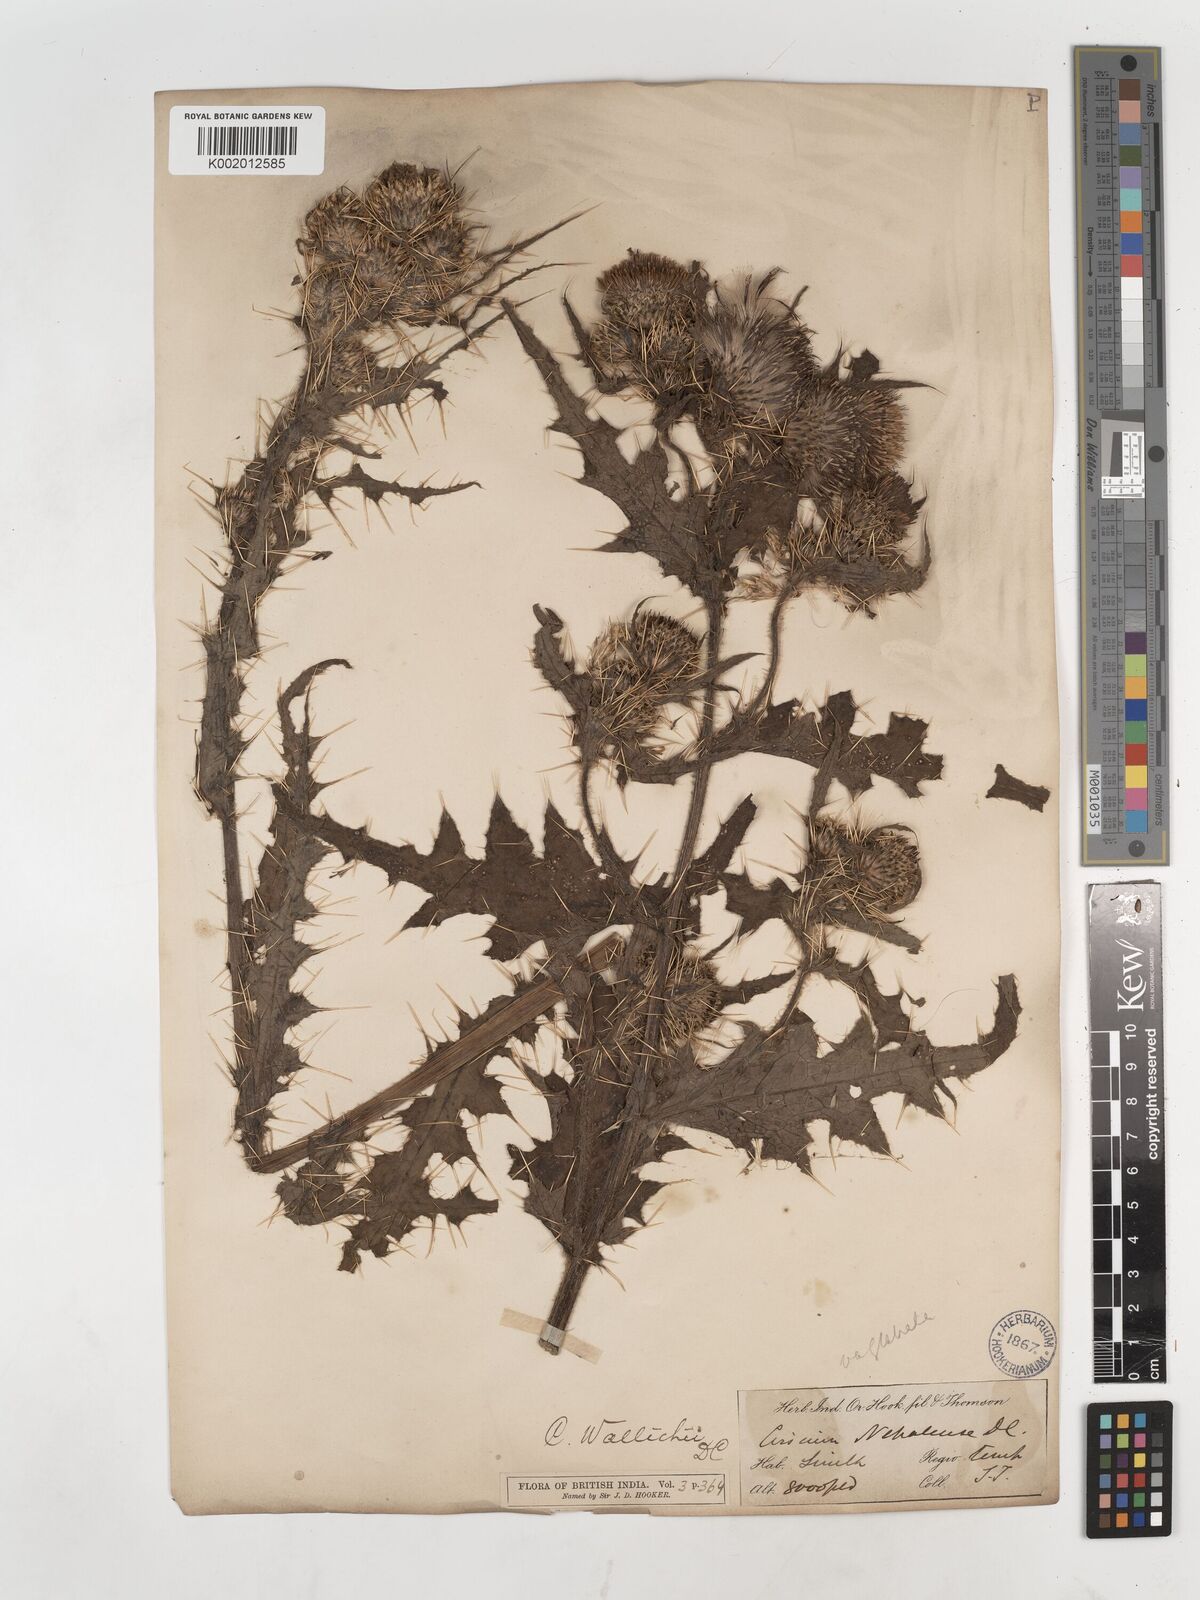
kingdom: Plantae
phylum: Tracheophyta
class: Magnoliopsida
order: Asterales
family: Asteraceae
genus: Cirsium
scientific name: Cirsium wallichii
